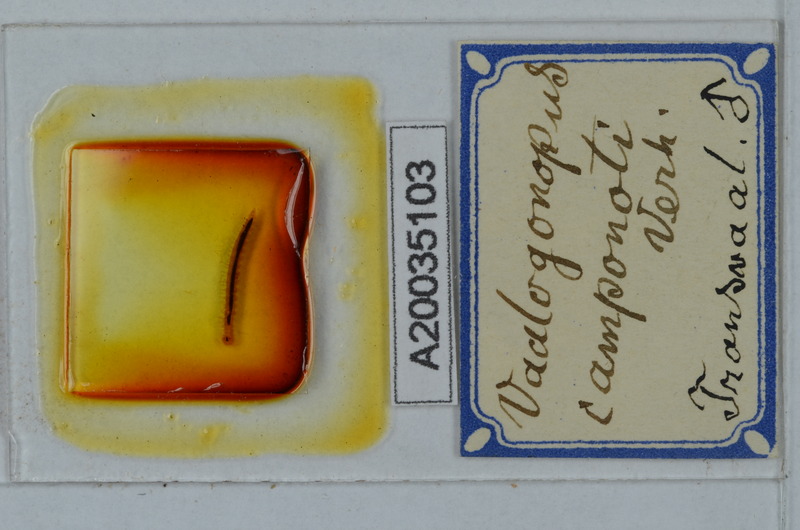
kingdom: Animalia
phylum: Arthropoda
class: Diplopoda
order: Polydesmida
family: Vaalogonopodidae
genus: Vaalogonopus
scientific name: Vaalogonopus camponoti
